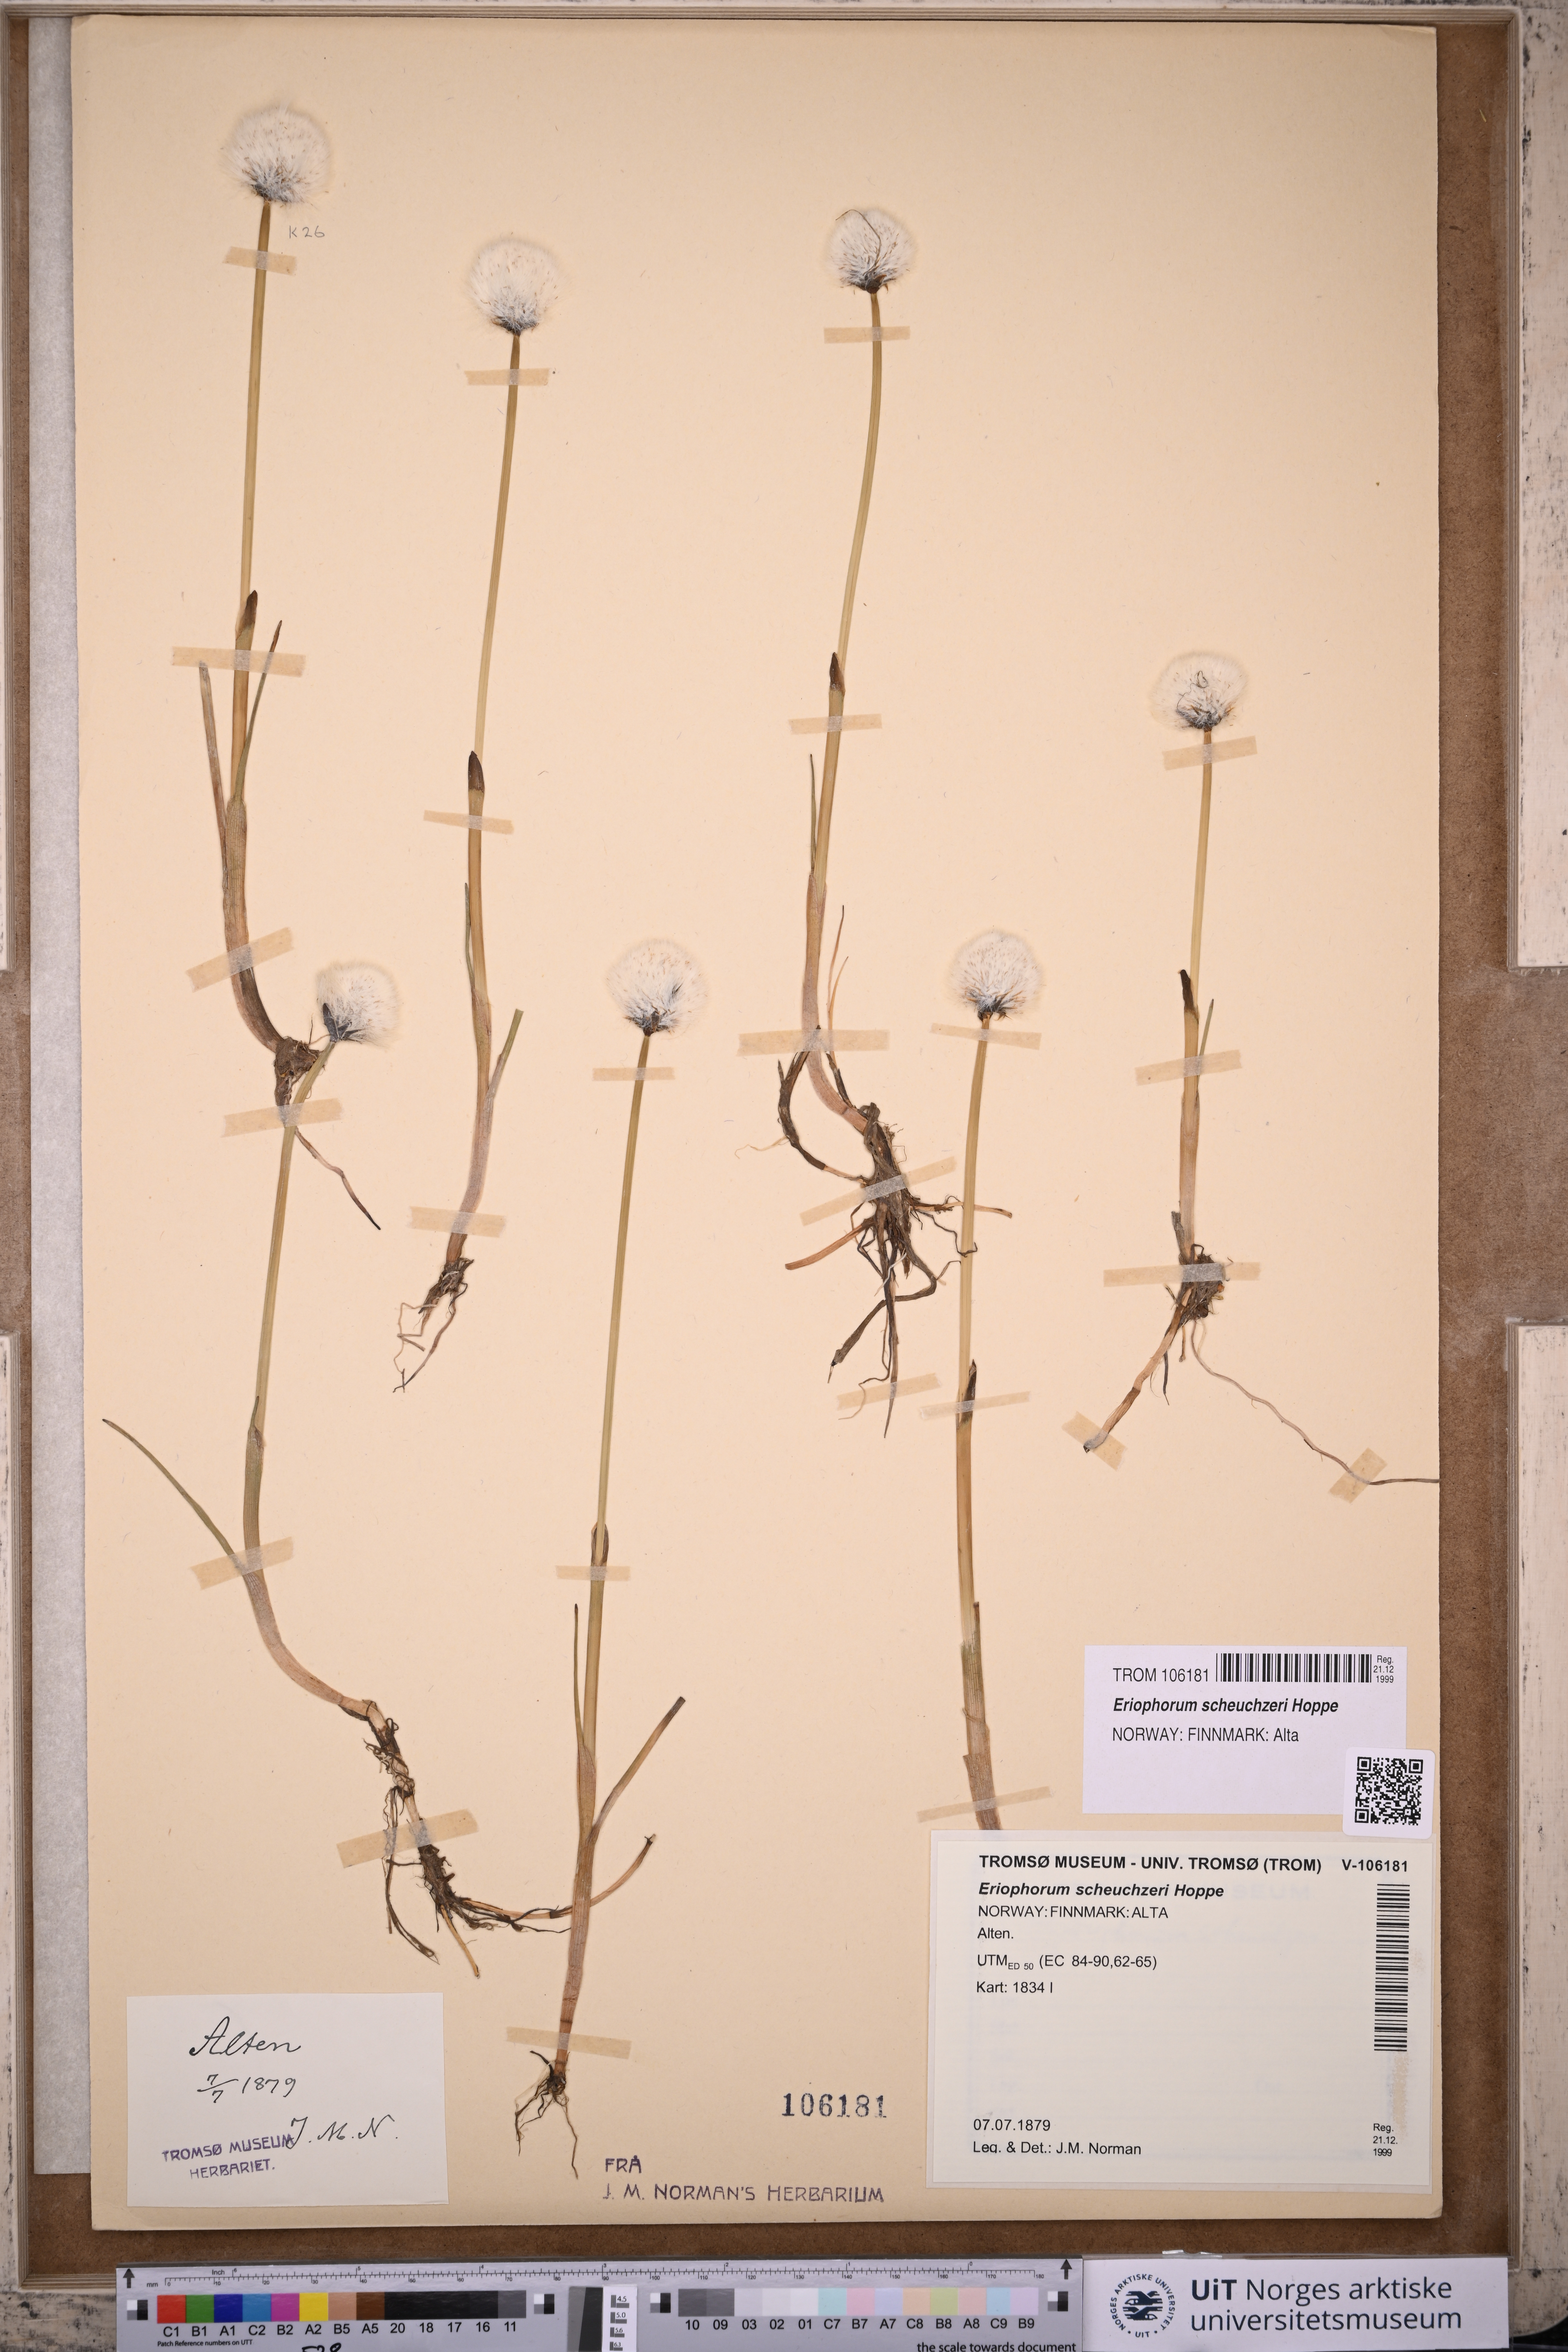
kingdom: Plantae
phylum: Tracheophyta
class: Liliopsida
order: Poales
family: Cyperaceae
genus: Eriophorum
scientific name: Eriophorum scheuchzeri
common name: Scheuchzer's cottongrass
